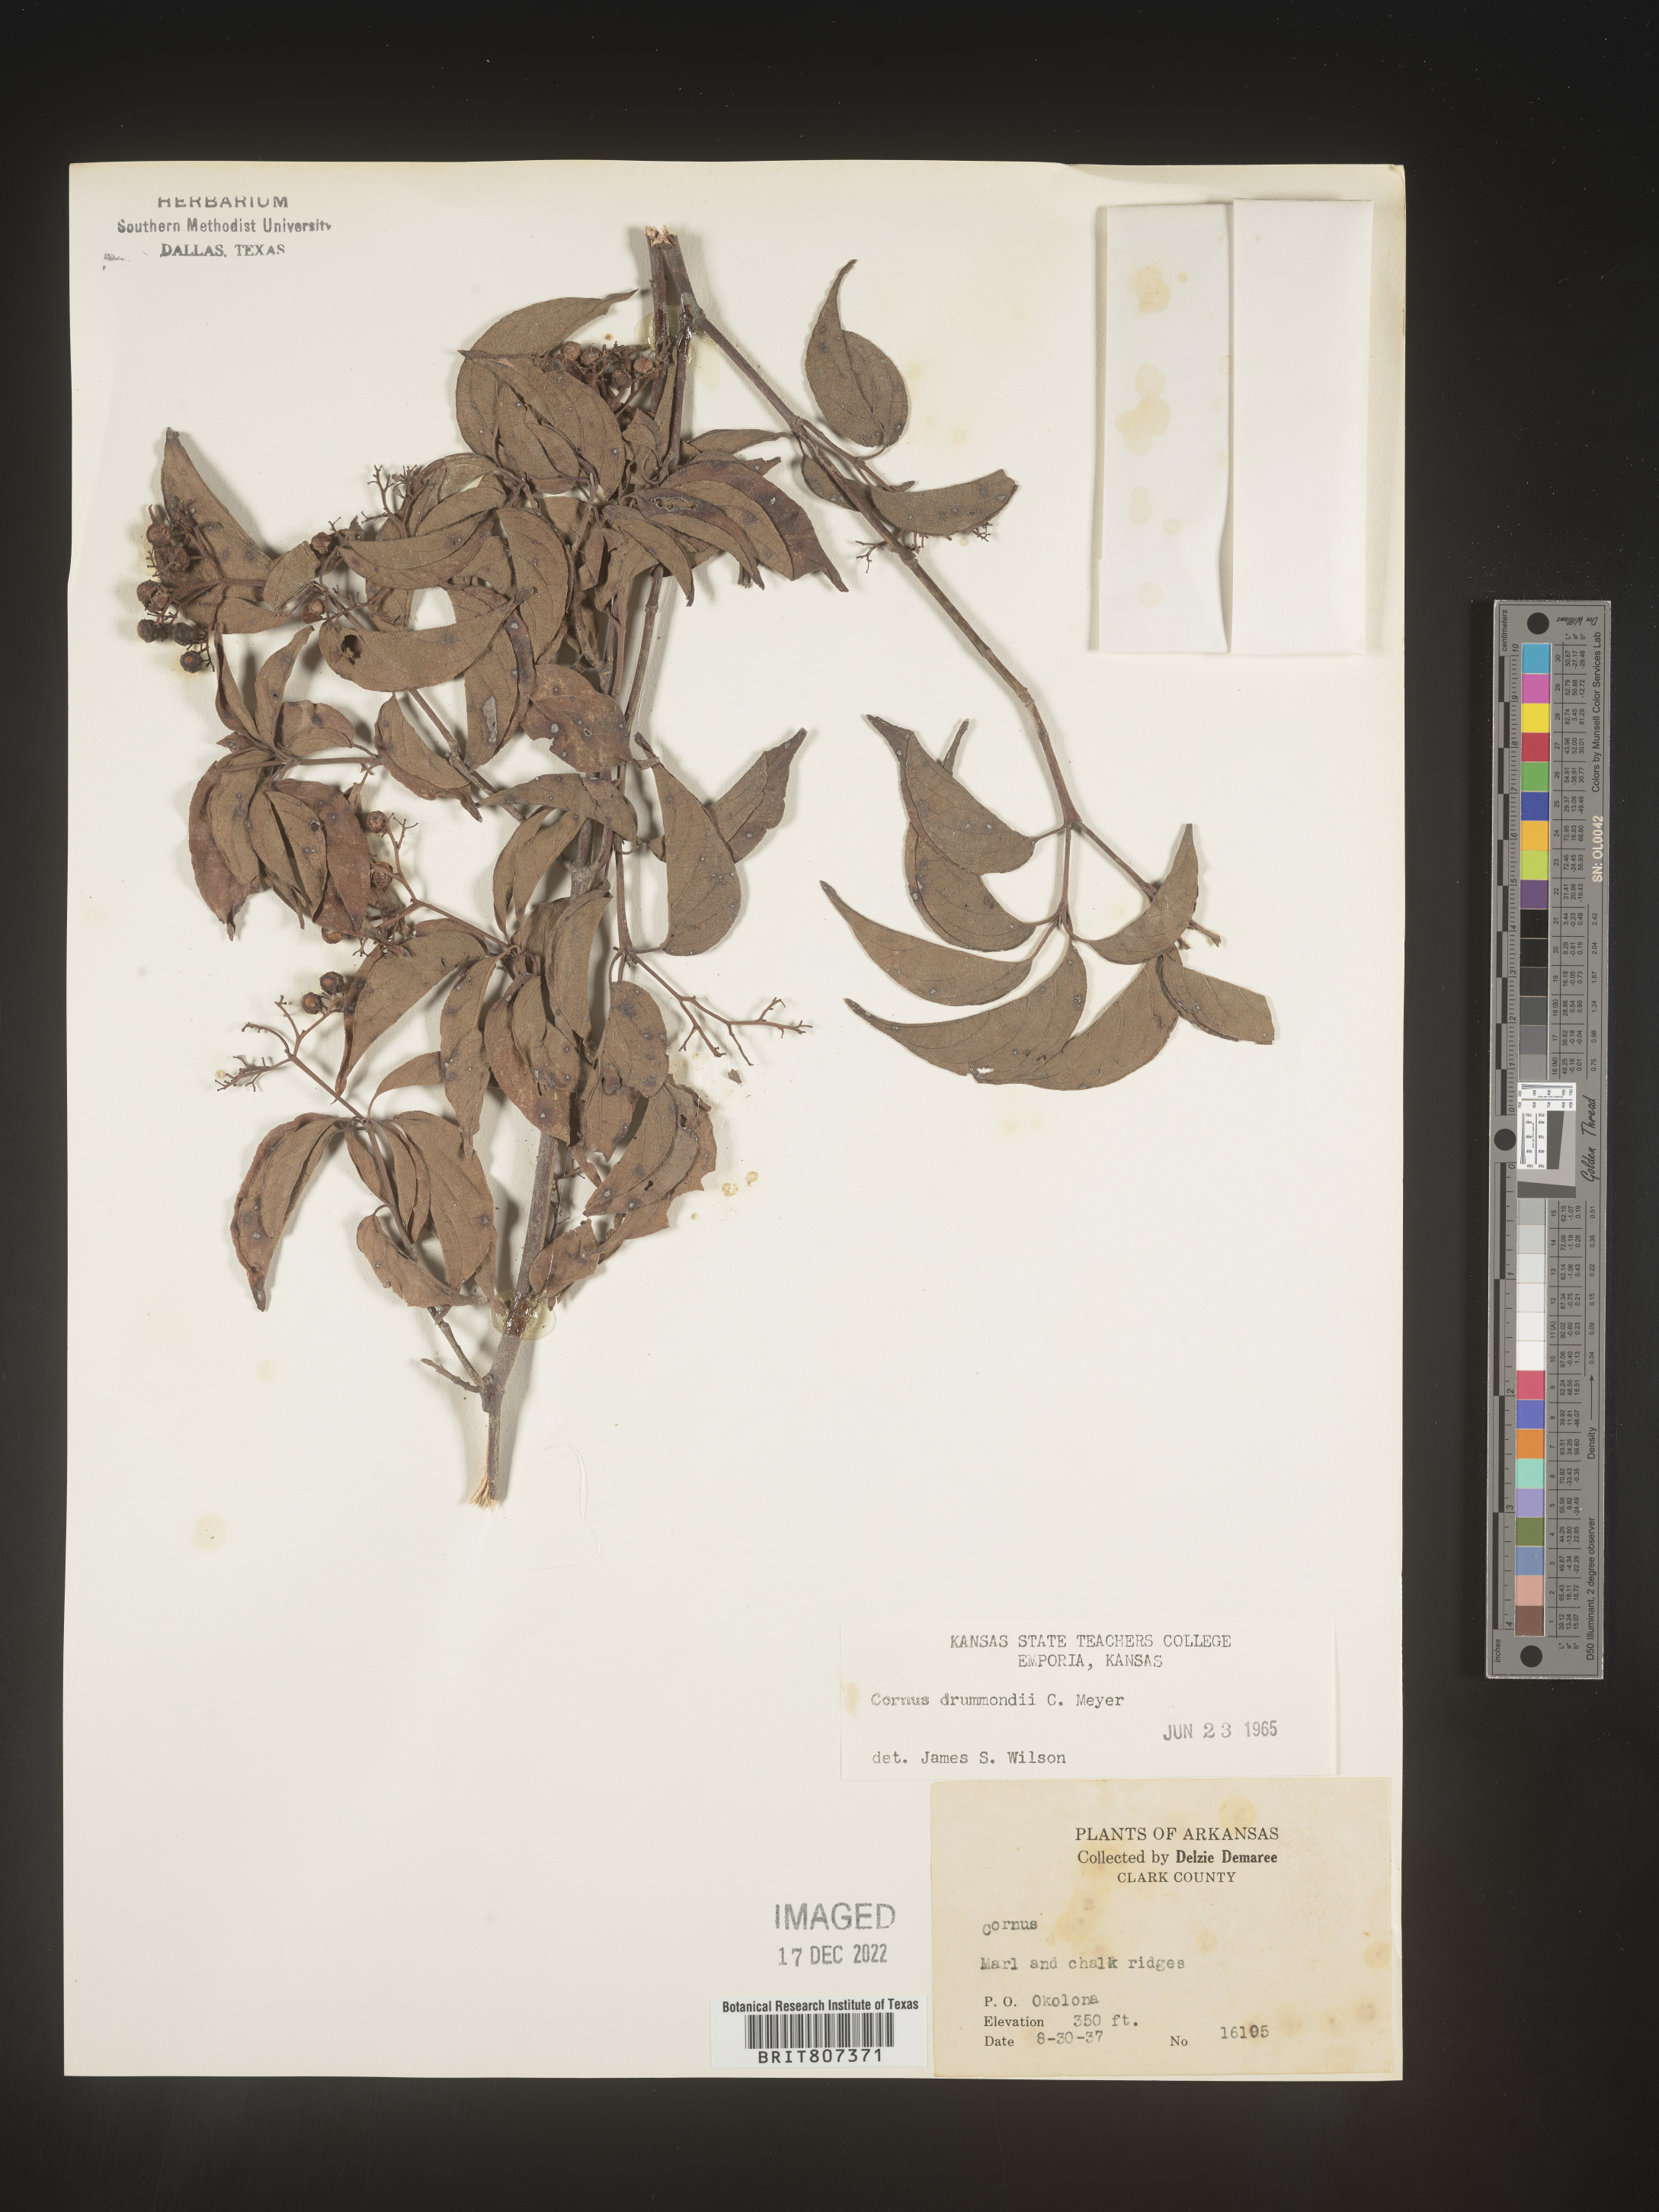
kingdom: Plantae
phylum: Tracheophyta
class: Magnoliopsida
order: Cornales
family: Cornaceae
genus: Cornus
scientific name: Cornus drummondii
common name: Rough-leaf dogwood
